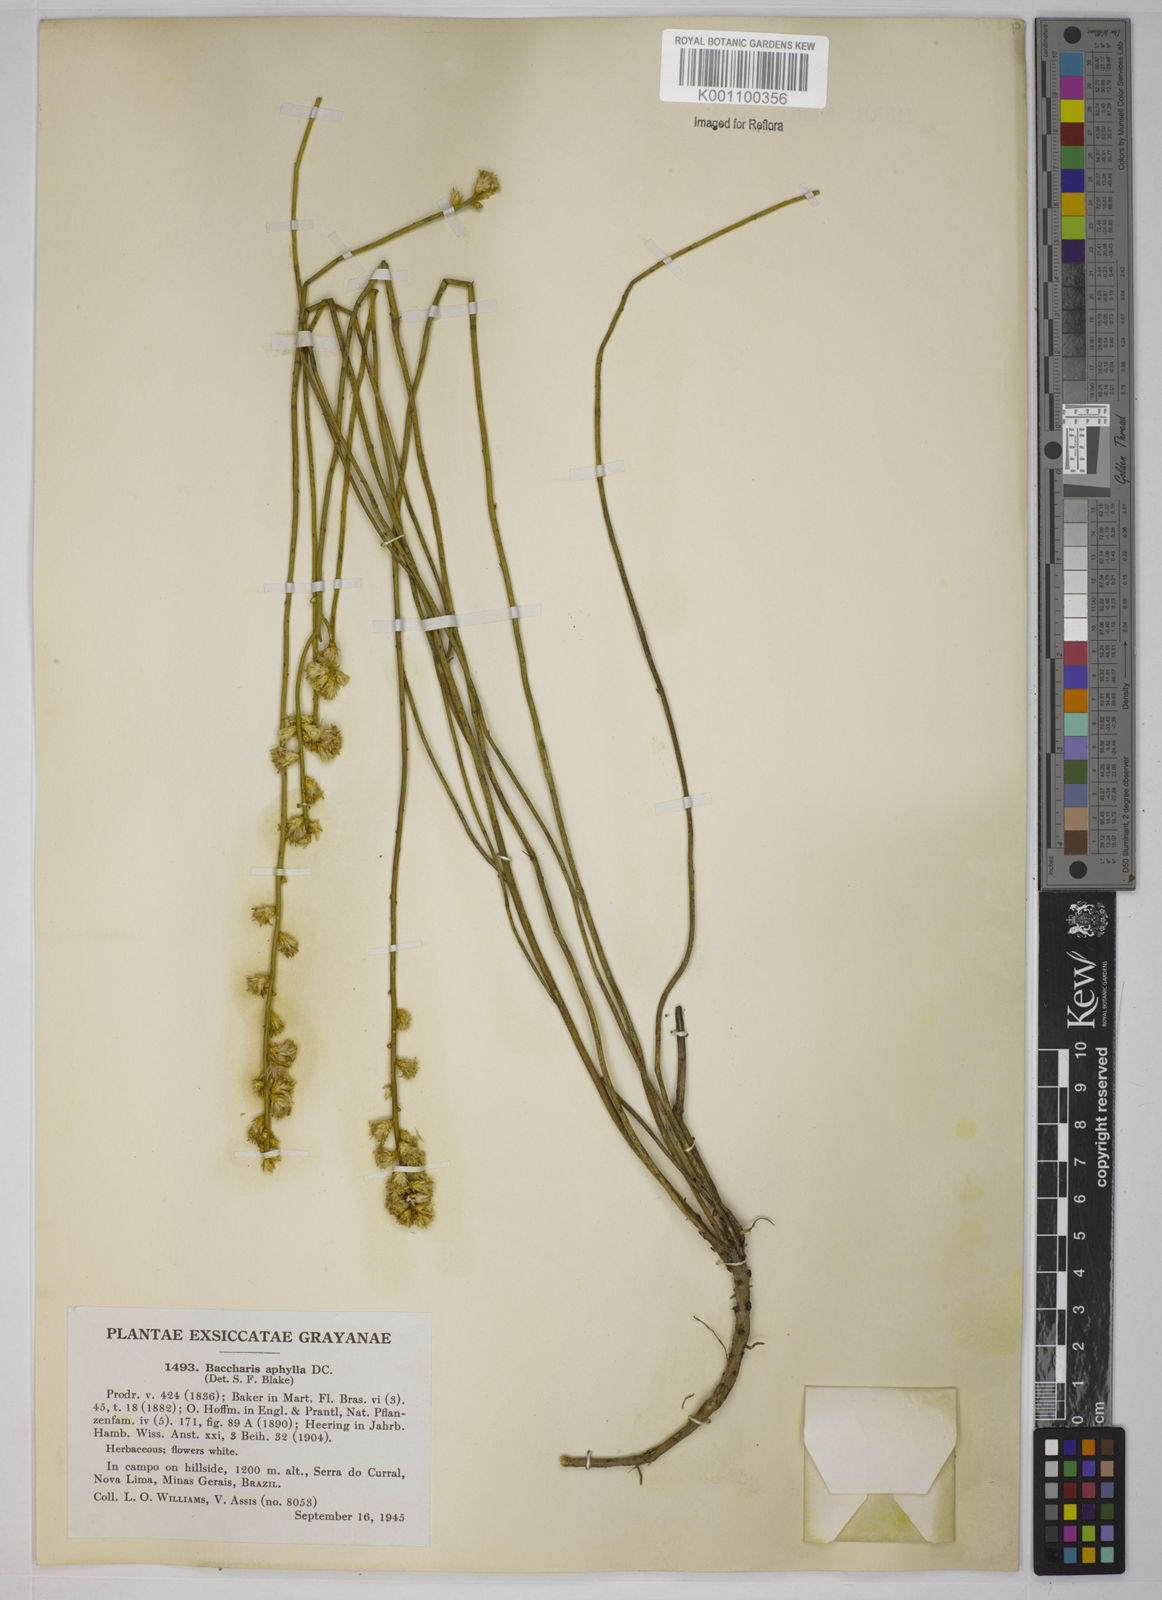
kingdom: Plantae
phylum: Tracheophyta
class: Magnoliopsida
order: Asterales
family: Asteraceae
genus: Baccharis
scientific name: Baccharis aphylla
